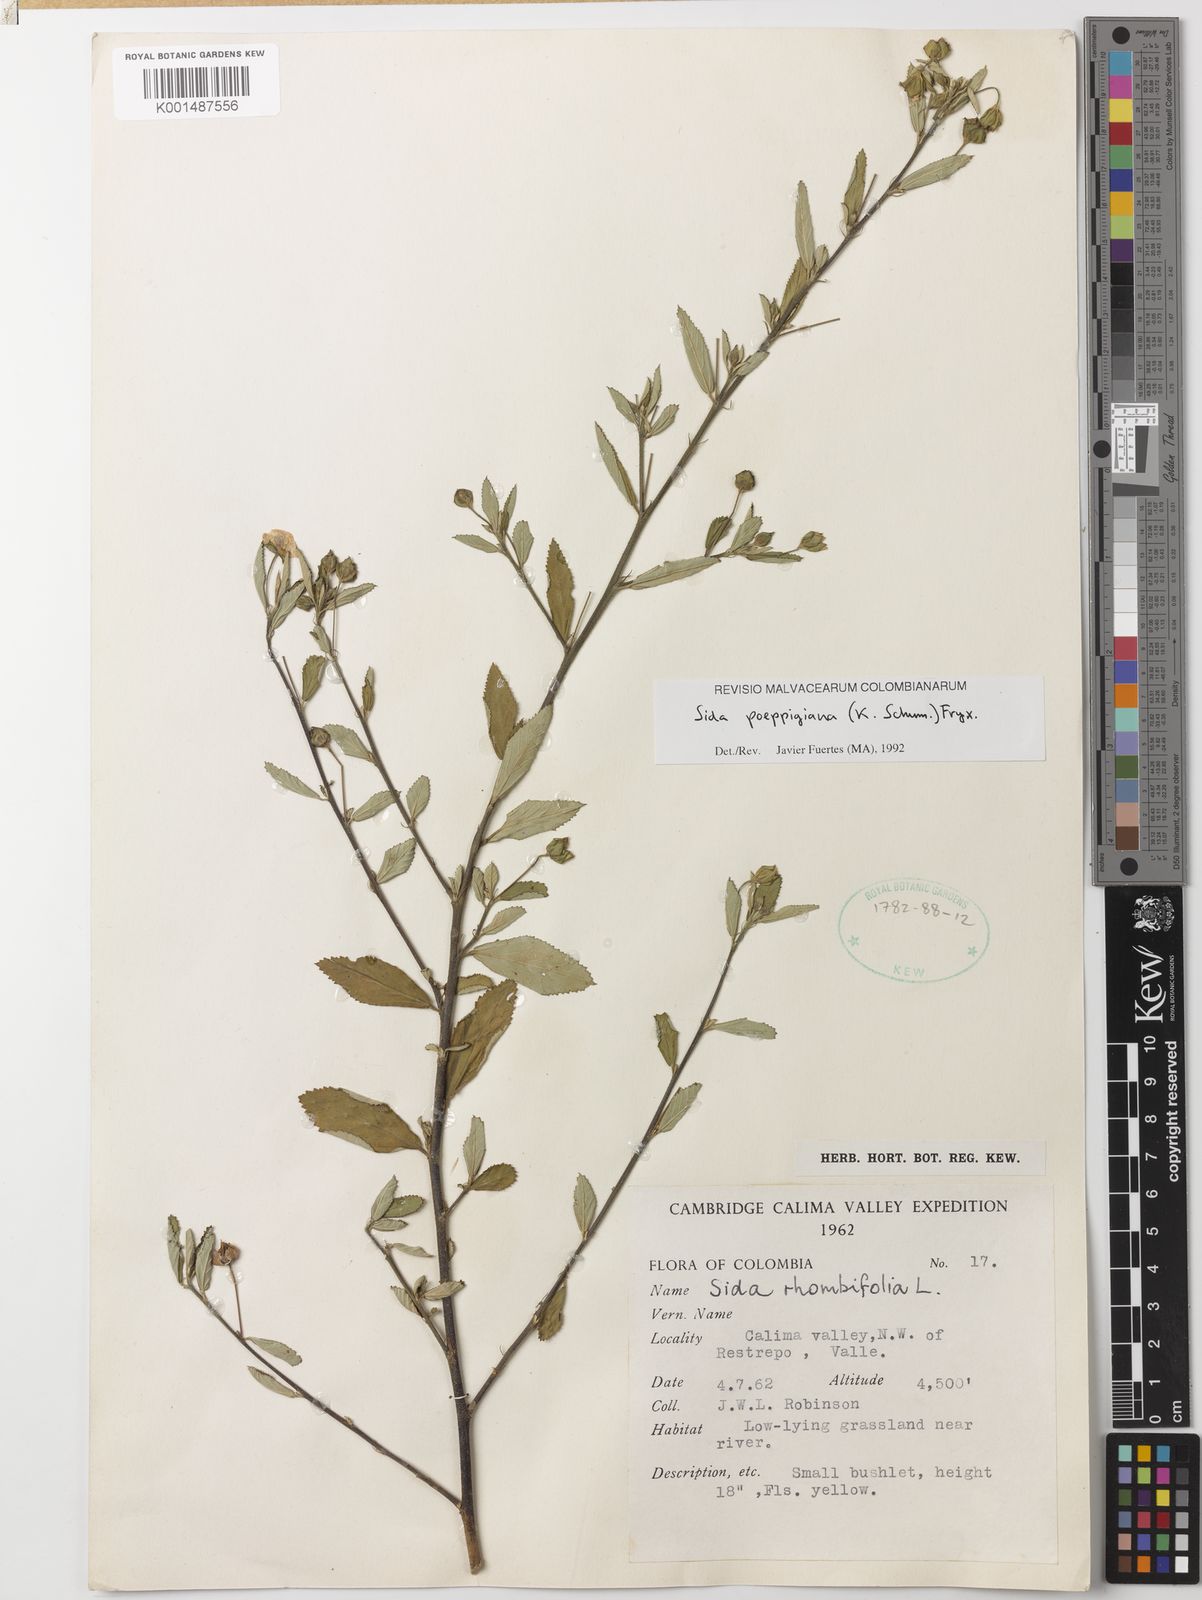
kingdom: Plantae
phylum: Tracheophyta
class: Magnoliopsida
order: Malvales
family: Malvaceae
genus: Sida
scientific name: Sida poeppigiana
